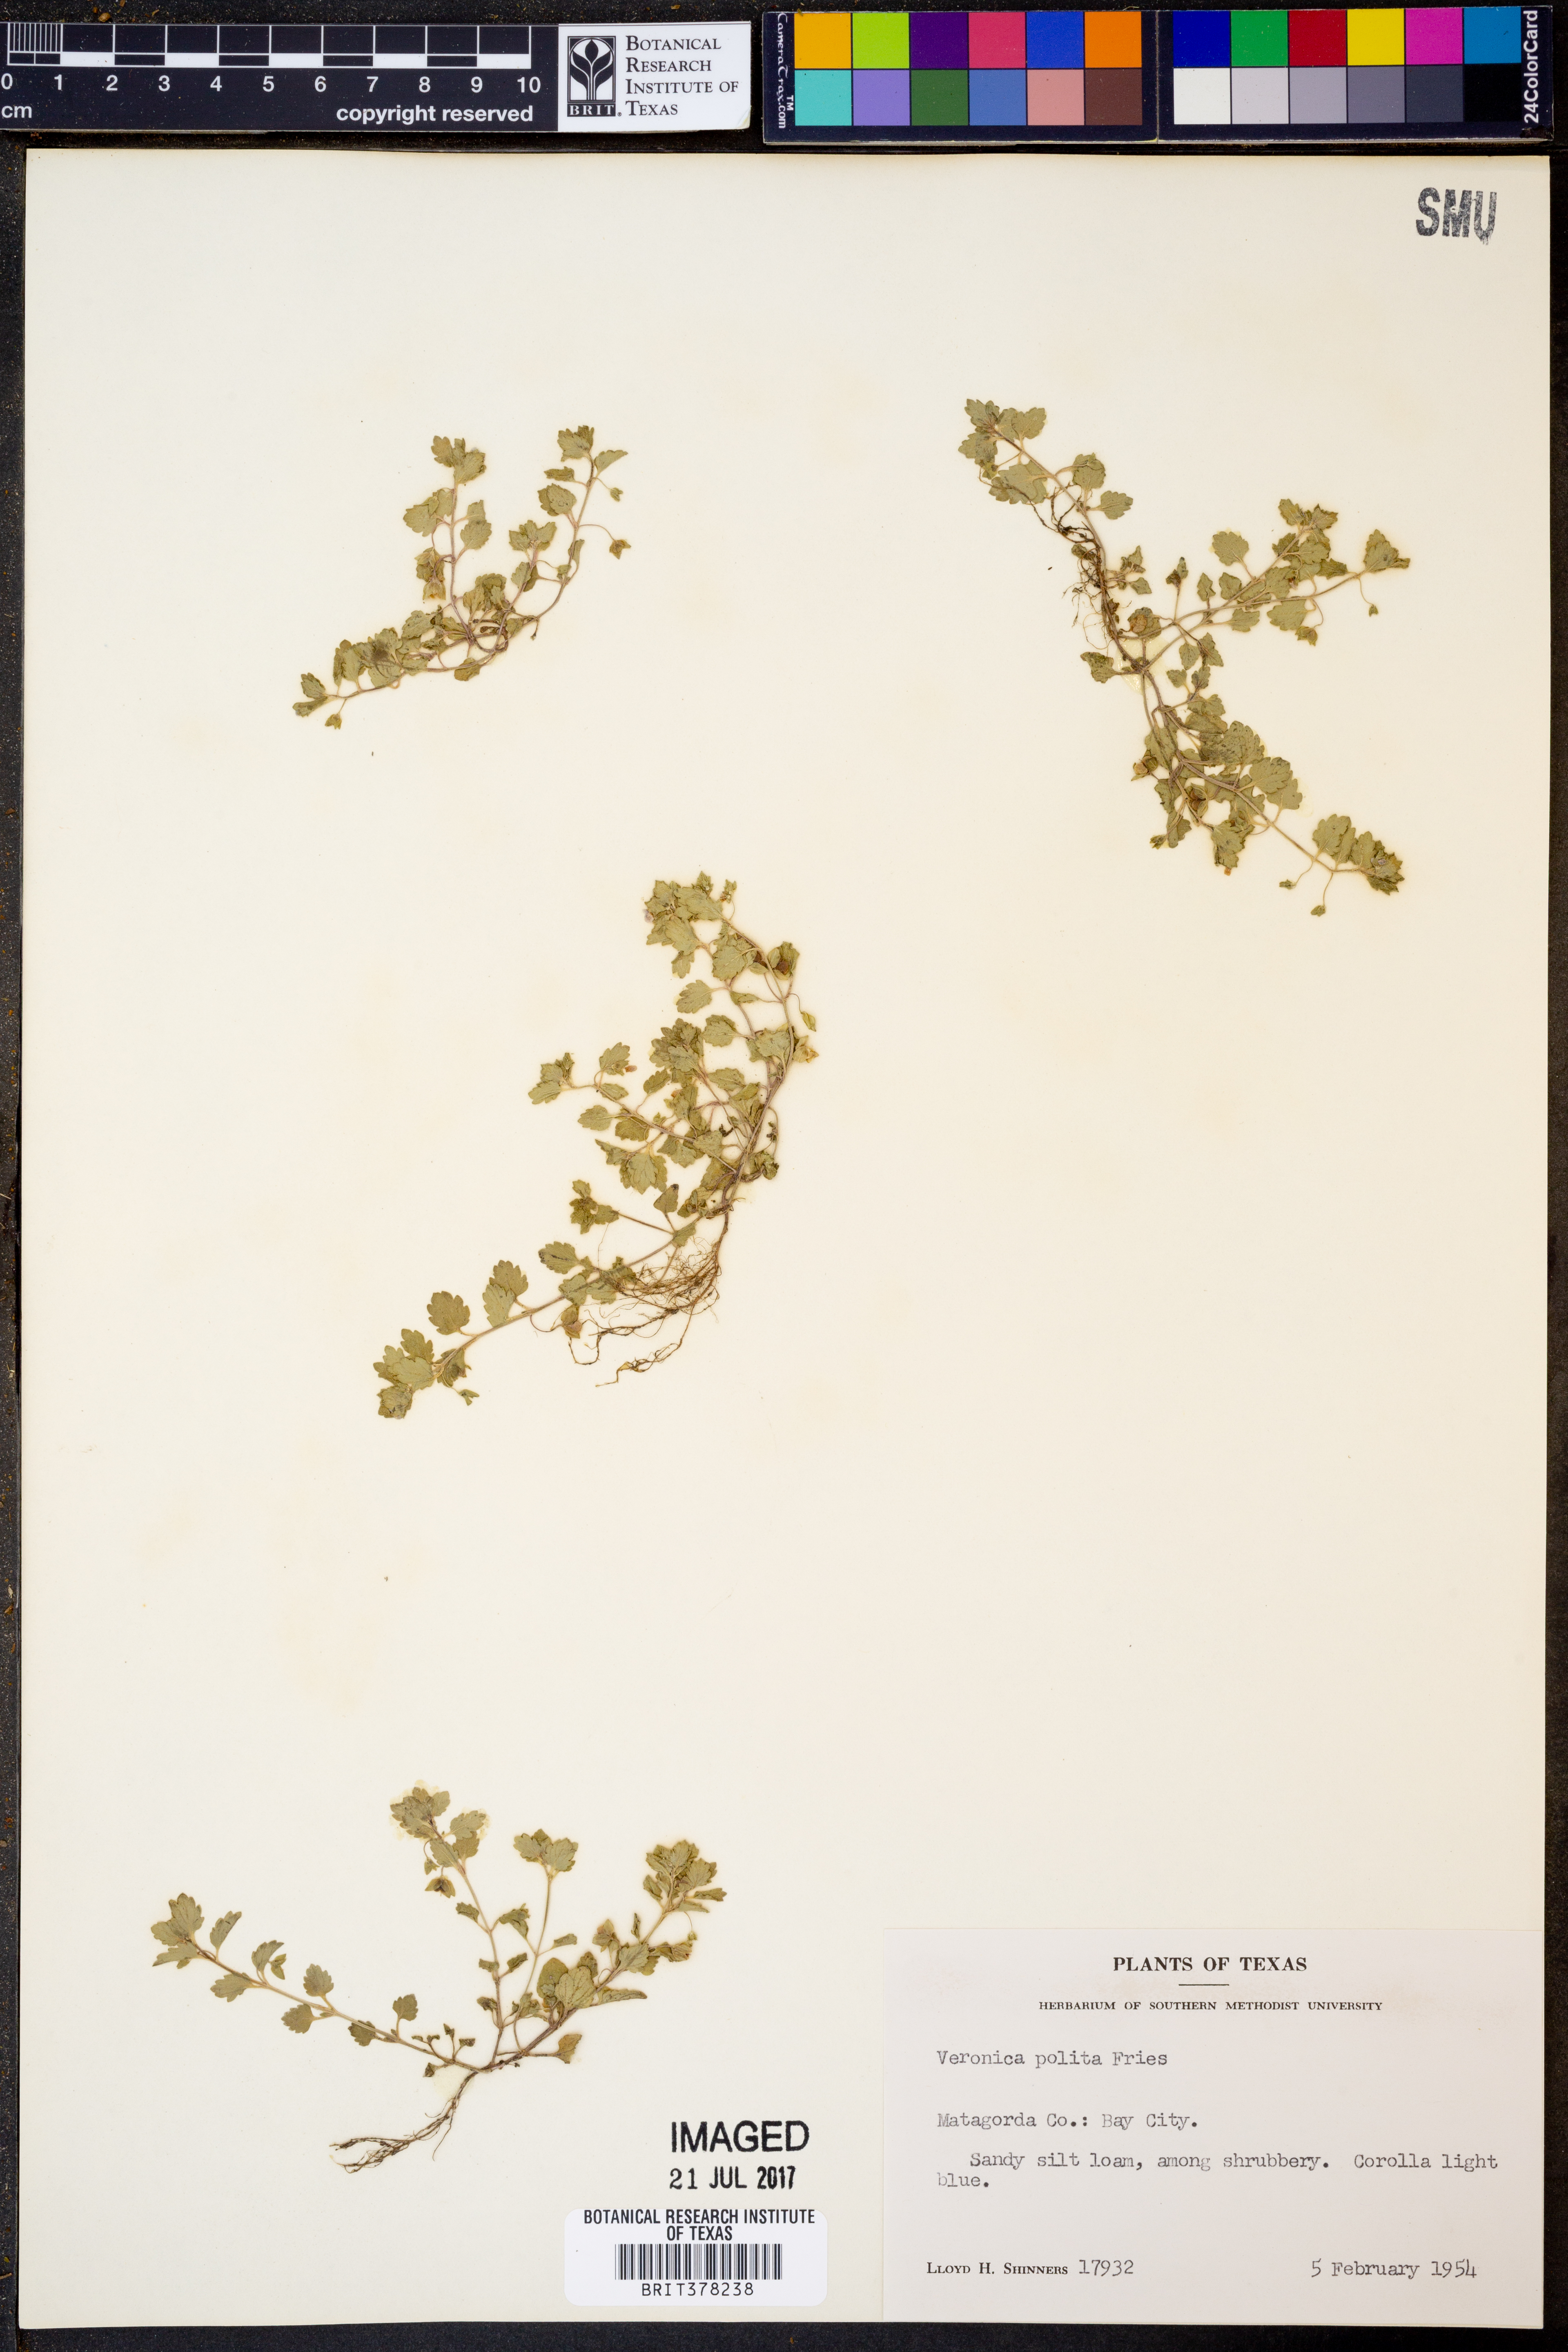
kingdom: Plantae
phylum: Tracheophyta
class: Magnoliopsida
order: Lamiales
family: Plantaginaceae
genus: Veronica
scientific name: Veronica polita
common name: Grey field-speedwell
